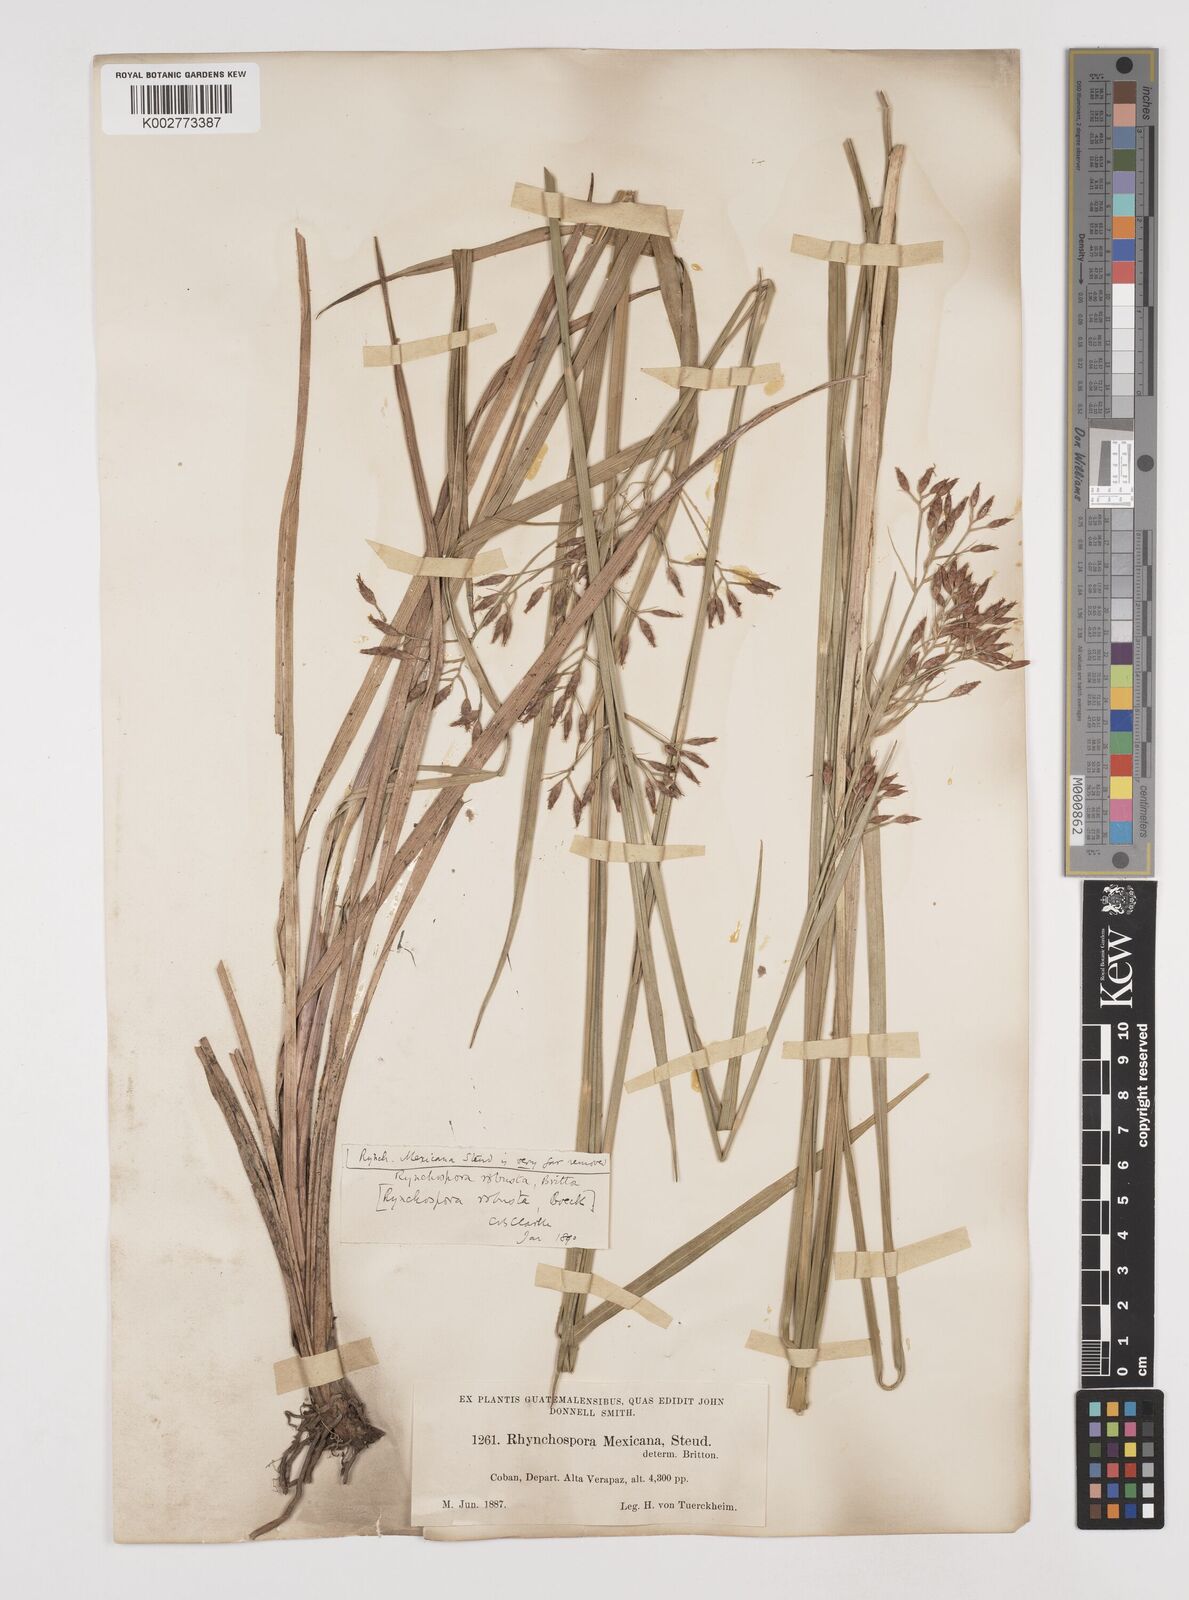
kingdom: Plantae
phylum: Tracheophyta
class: Liliopsida
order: Poales
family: Cyperaceae
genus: Rhynchospora
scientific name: Rhynchospora robusta
